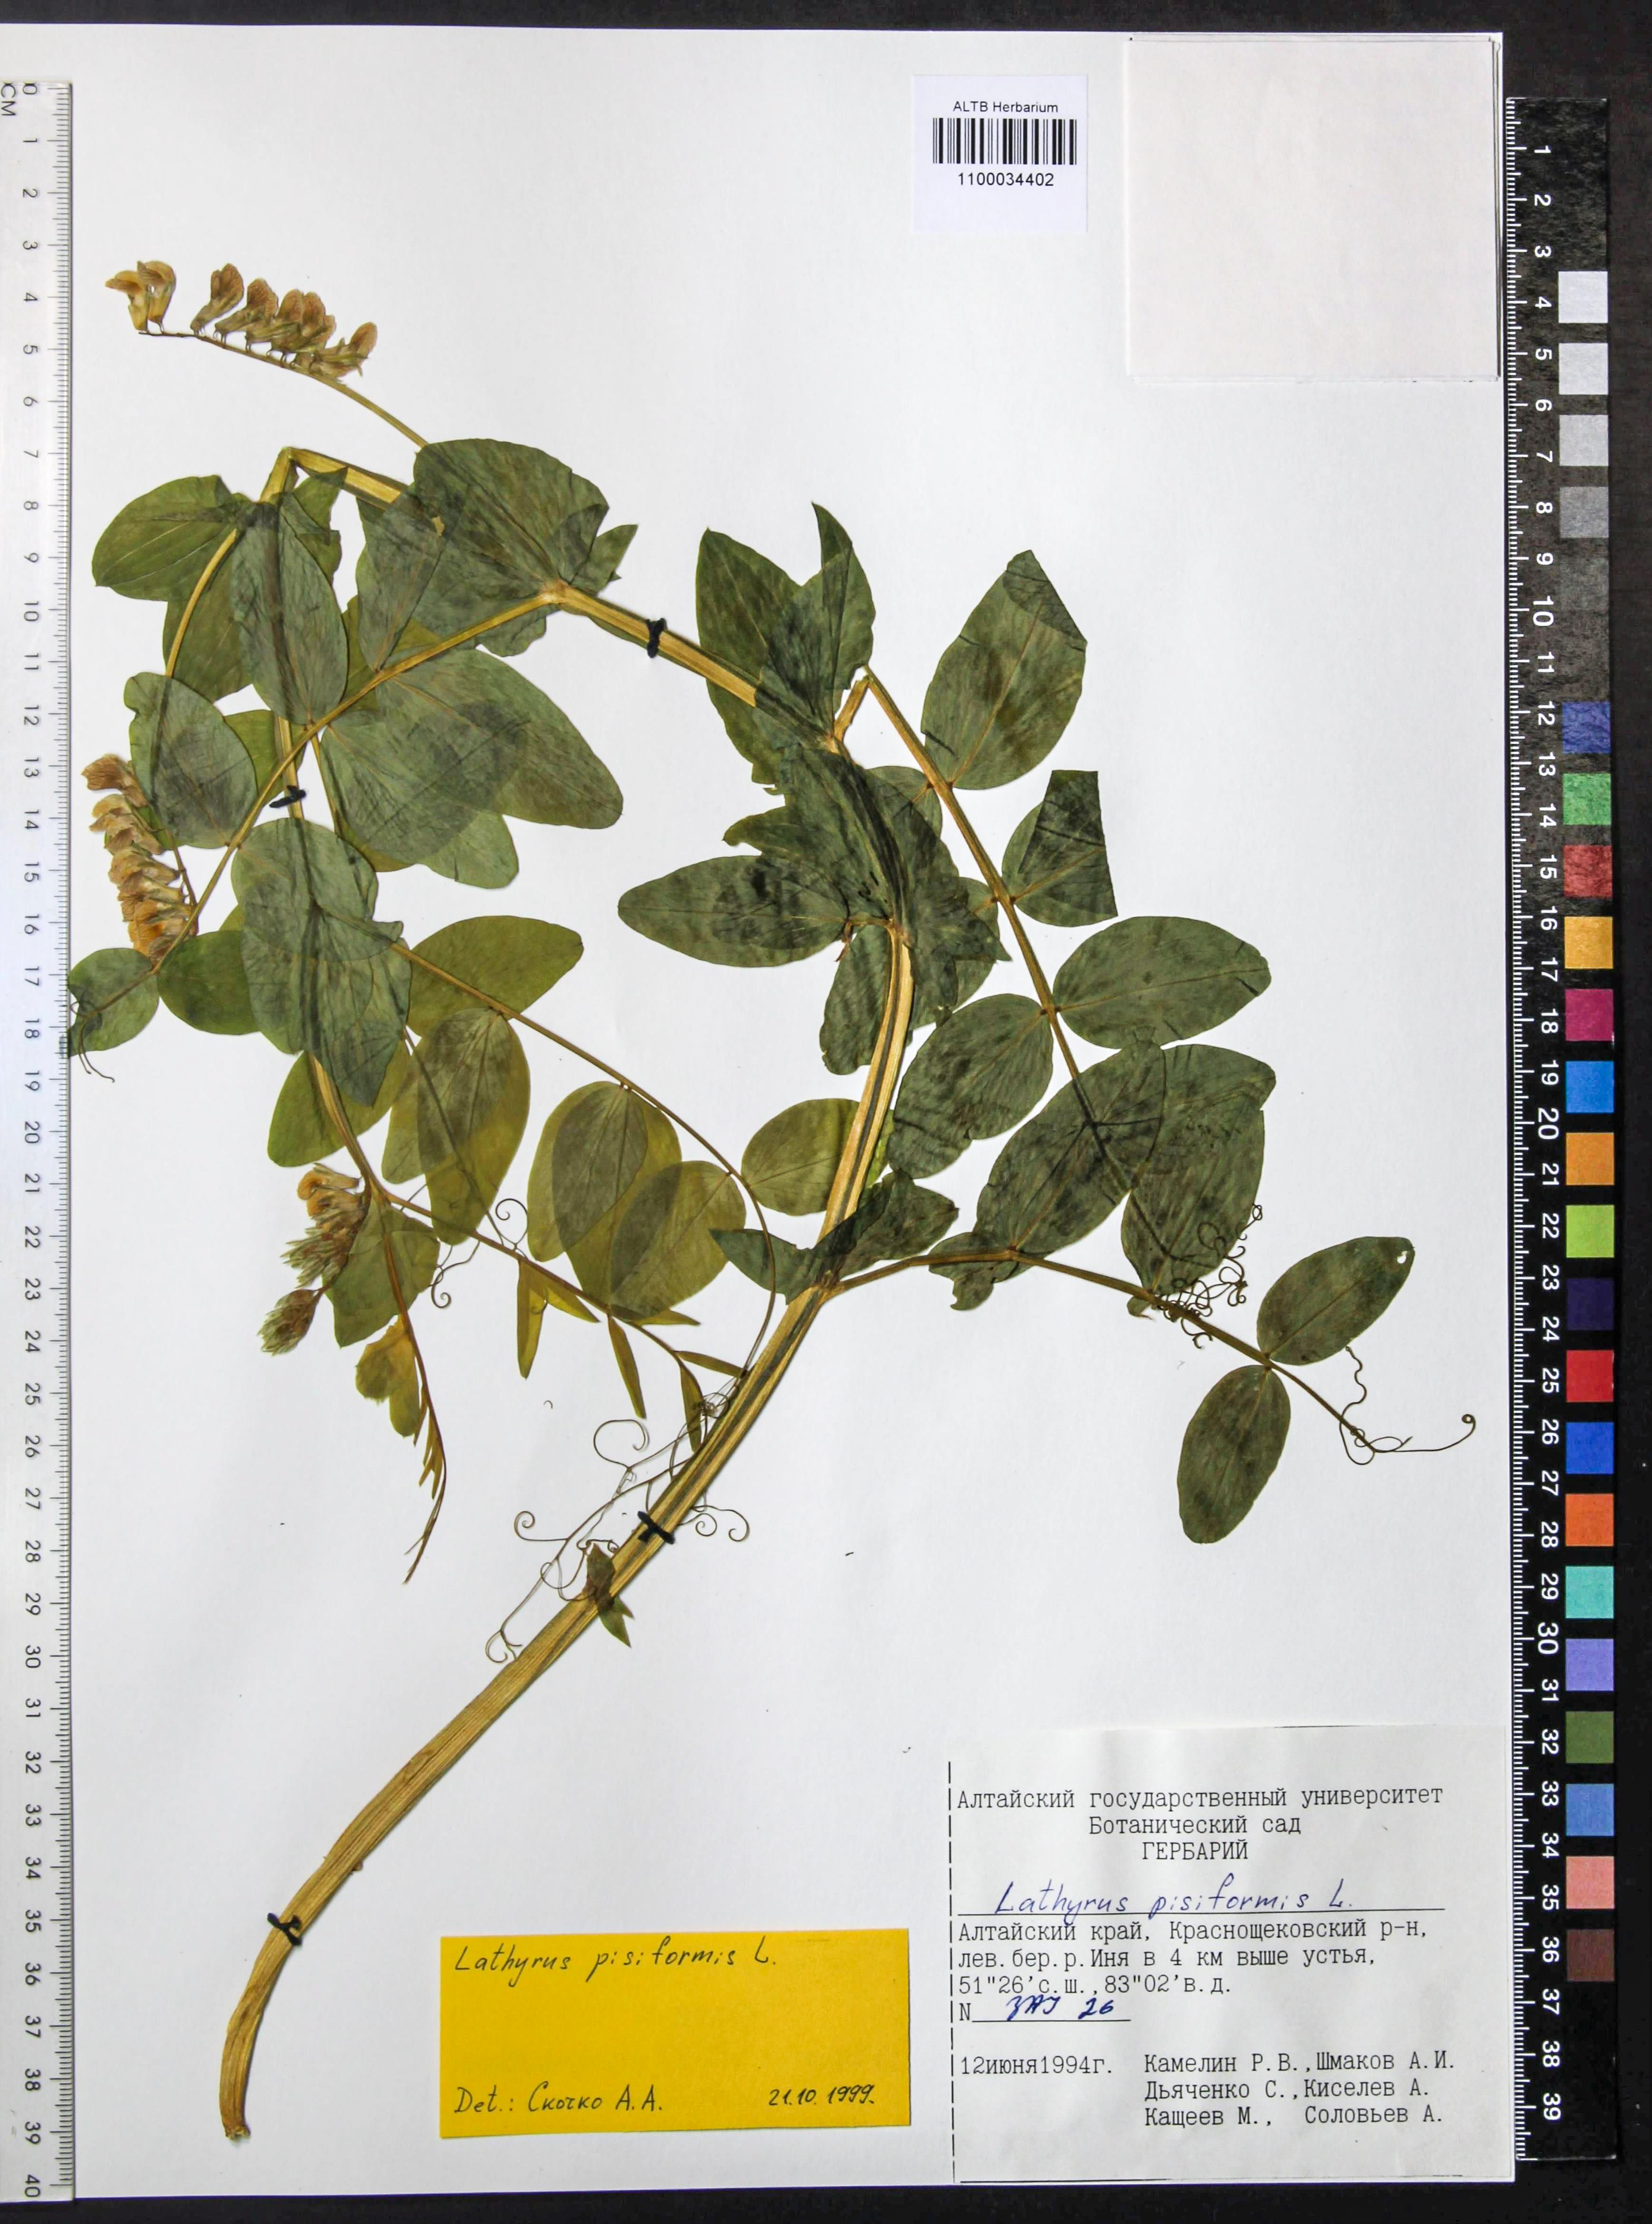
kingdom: Plantae
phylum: Tracheophyta
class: Magnoliopsida
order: Fabales
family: Fabaceae
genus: Lathyrus
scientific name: Lathyrus pisiformis
